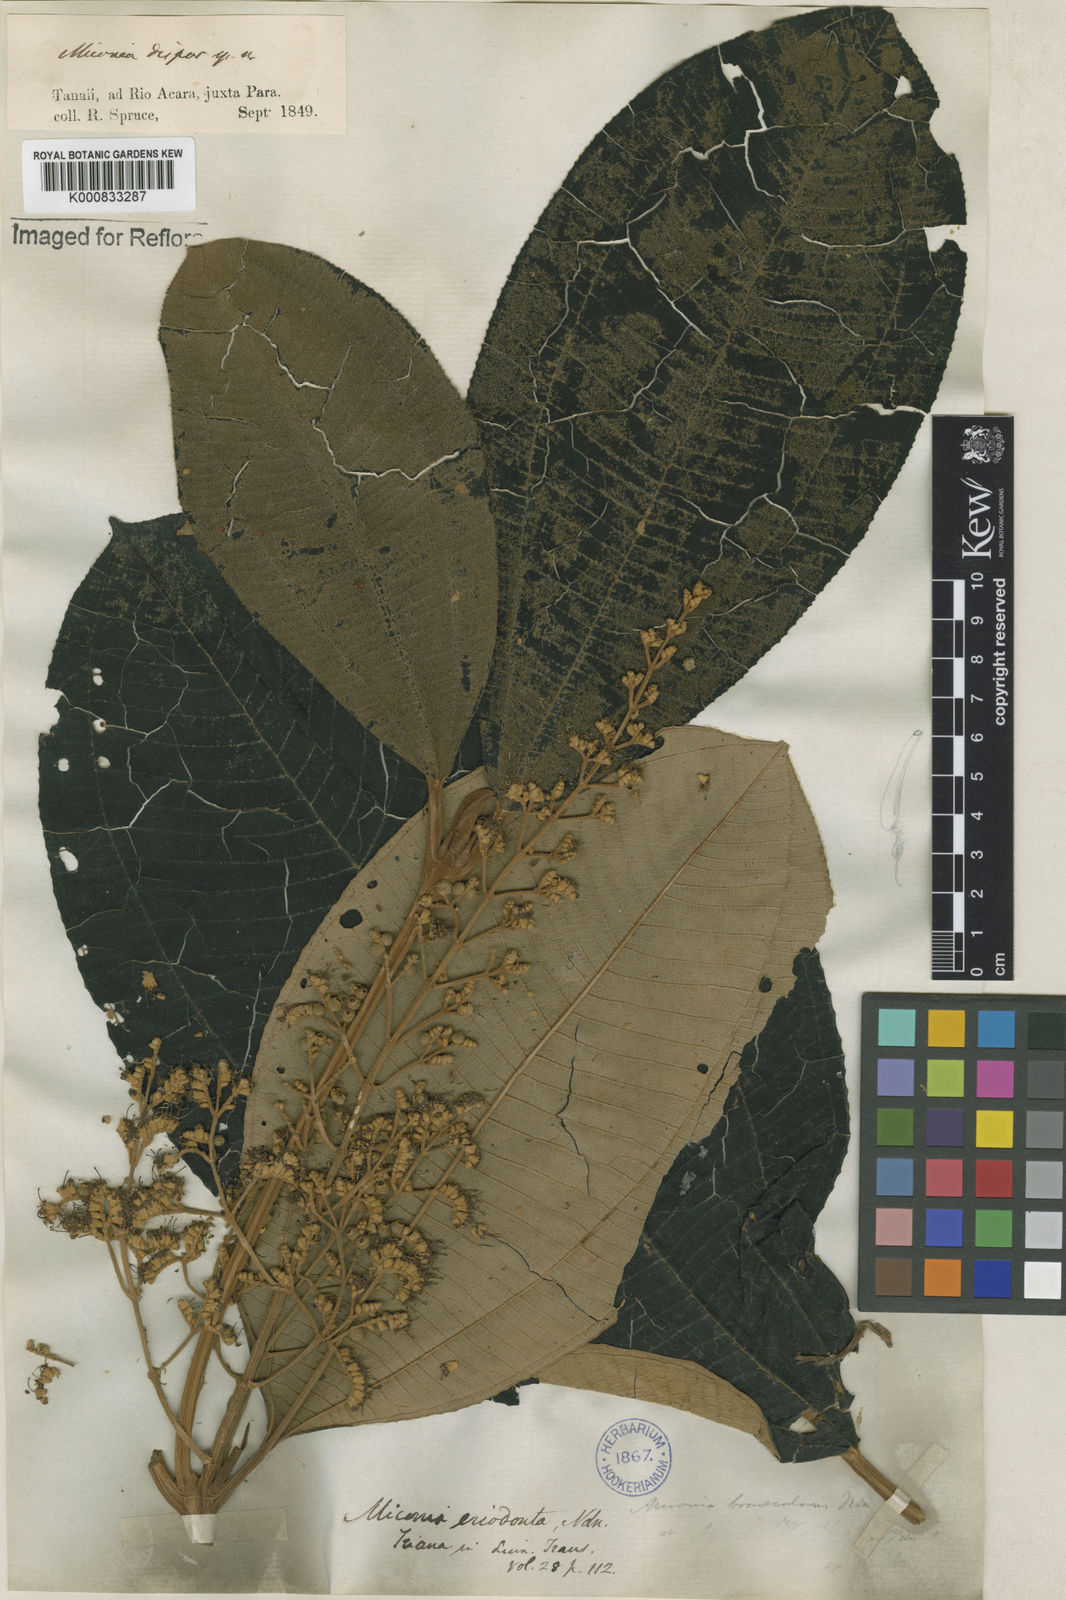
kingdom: Plantae
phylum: Tracheophyta
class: Magnoliopsida
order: Myrtales
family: Melastomataceae
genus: Miconia
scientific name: Miconia dispar
